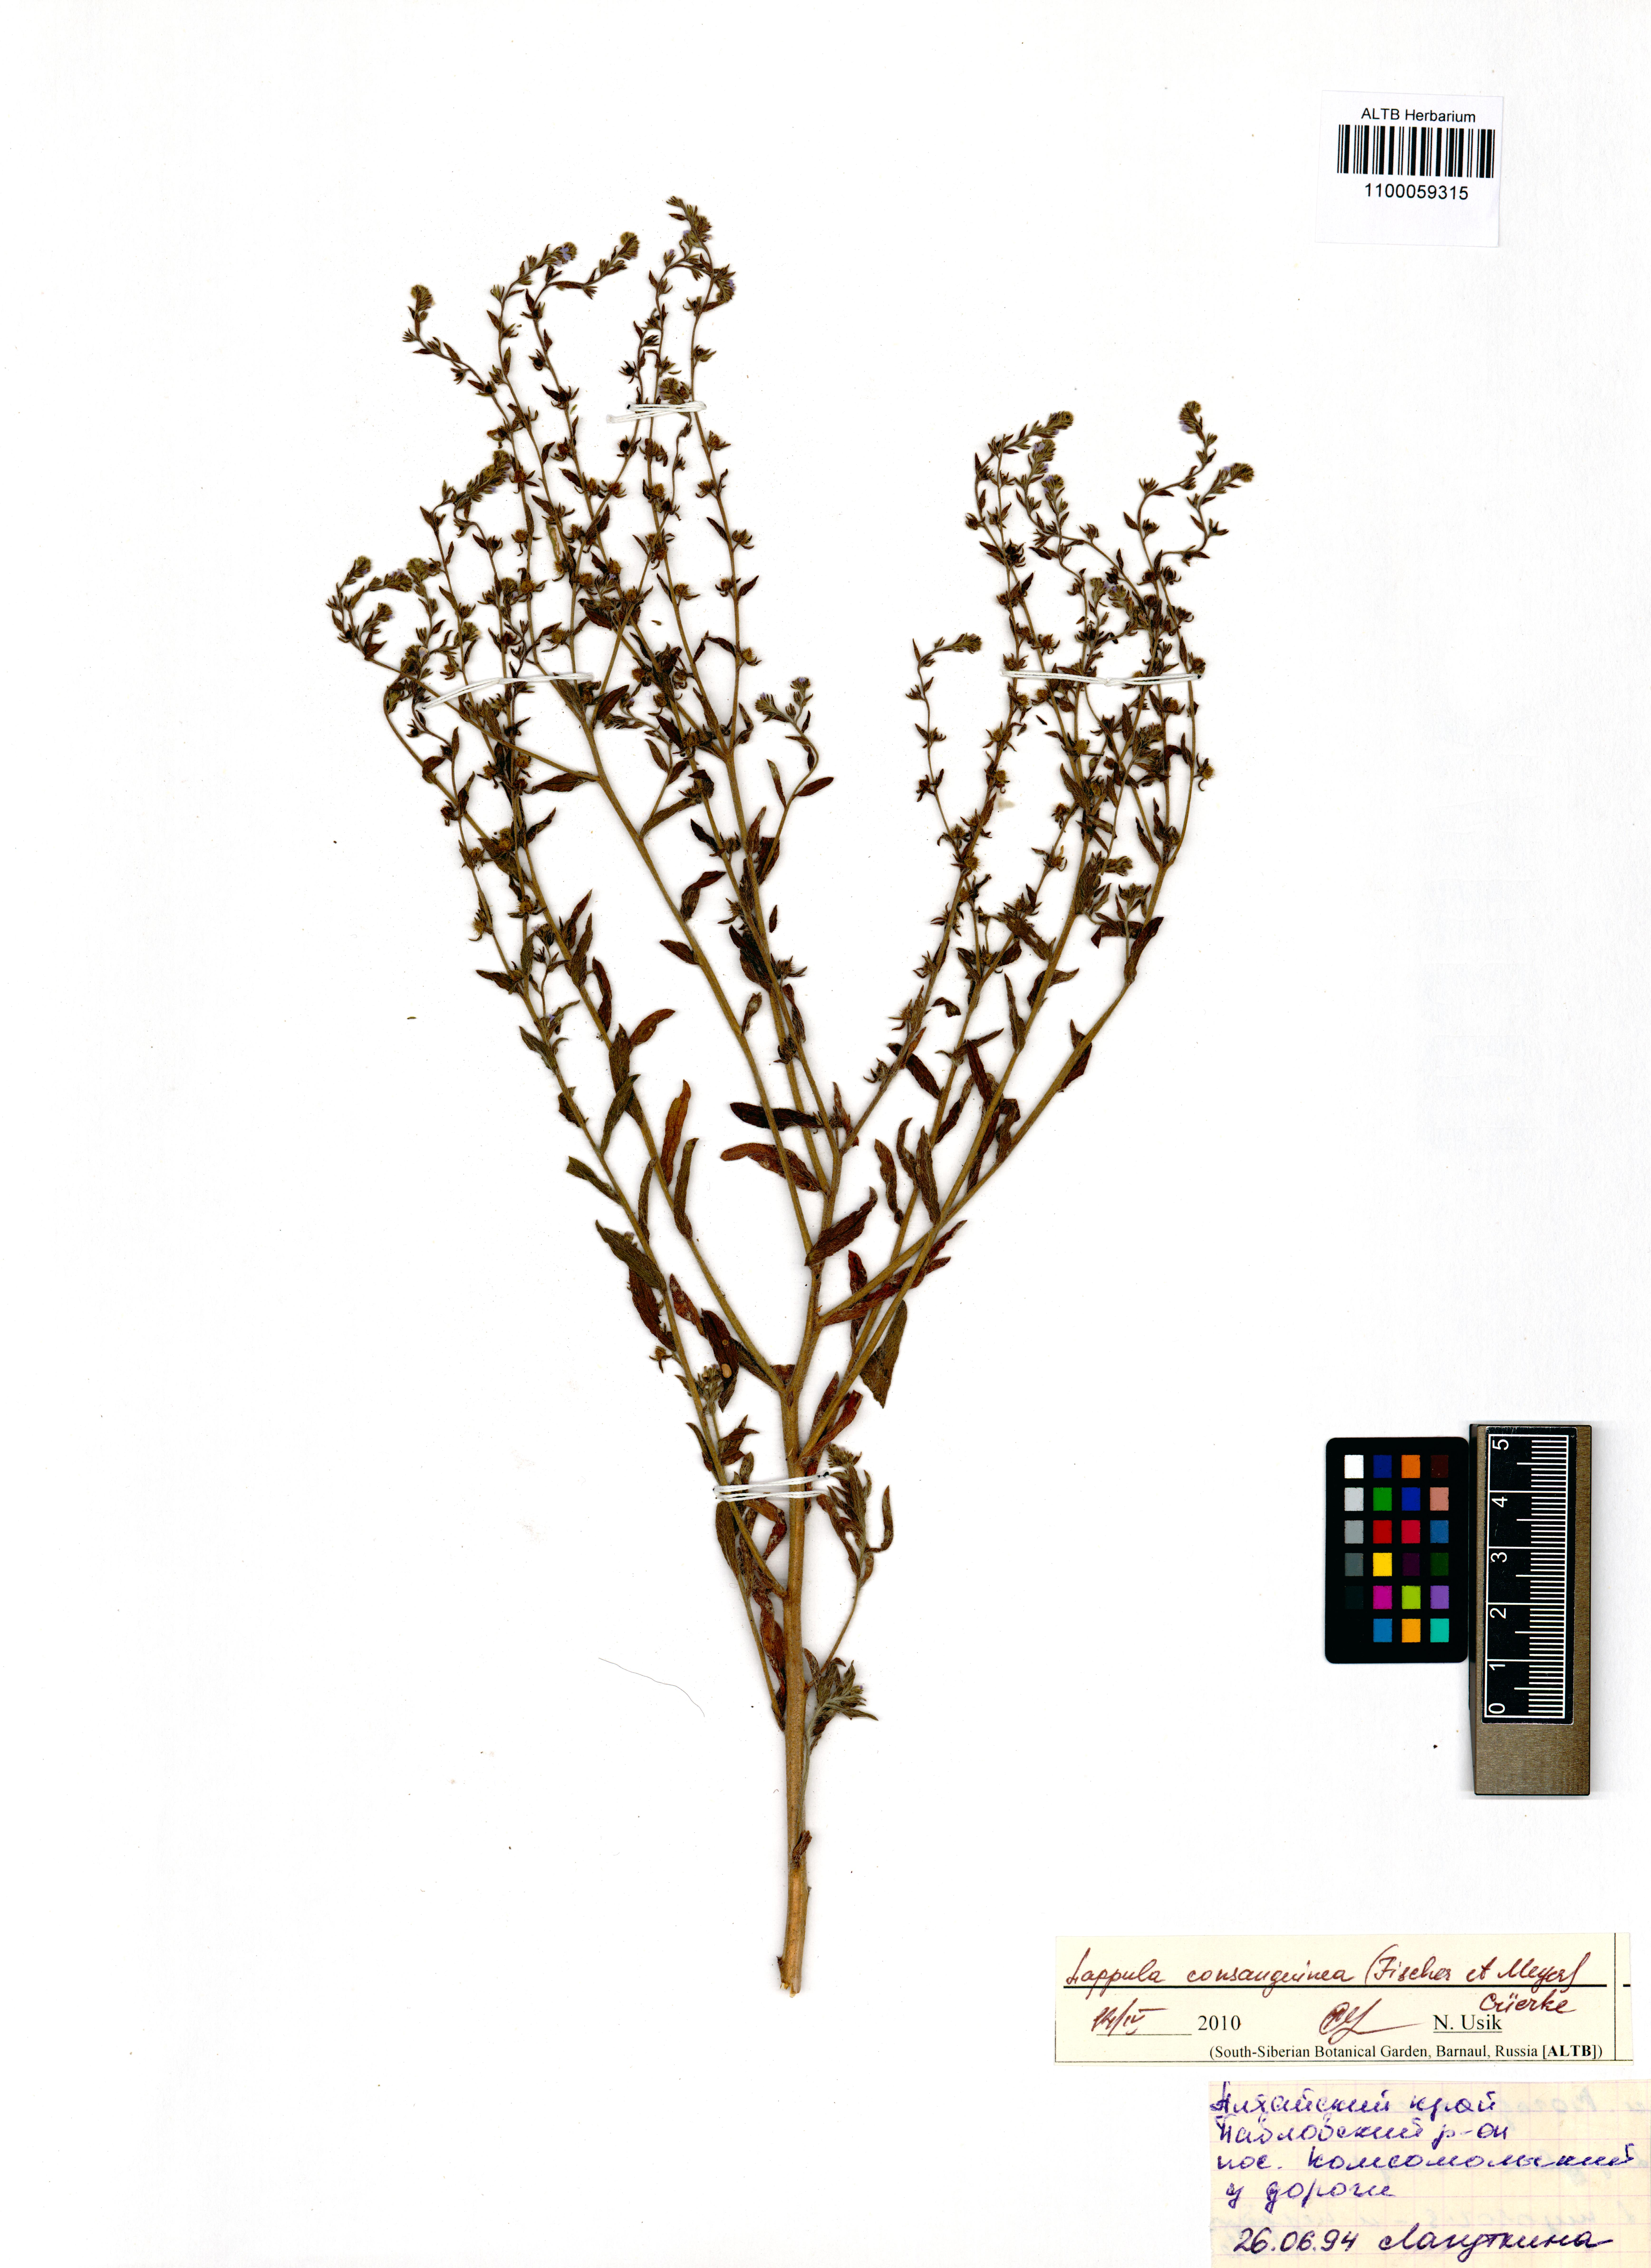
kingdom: Plantae
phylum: Tracheophyta
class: Magnoliopsida
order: Boraginales
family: Boraginaceae
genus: Lappula
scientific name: Lappula squarrosa
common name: European stickseed
